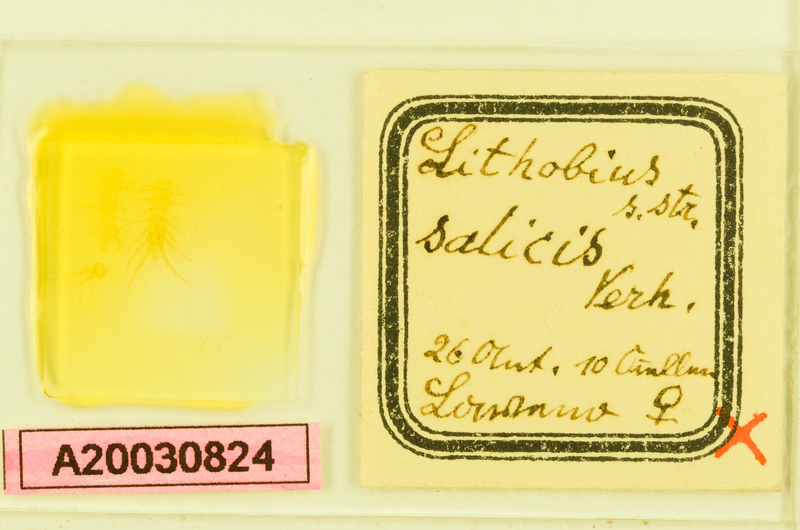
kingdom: Animalia
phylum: Arthropoda
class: Chilopoda
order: Lithobiomorpha
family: Lithobiidae
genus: Lithobius
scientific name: Lithobius salicis
